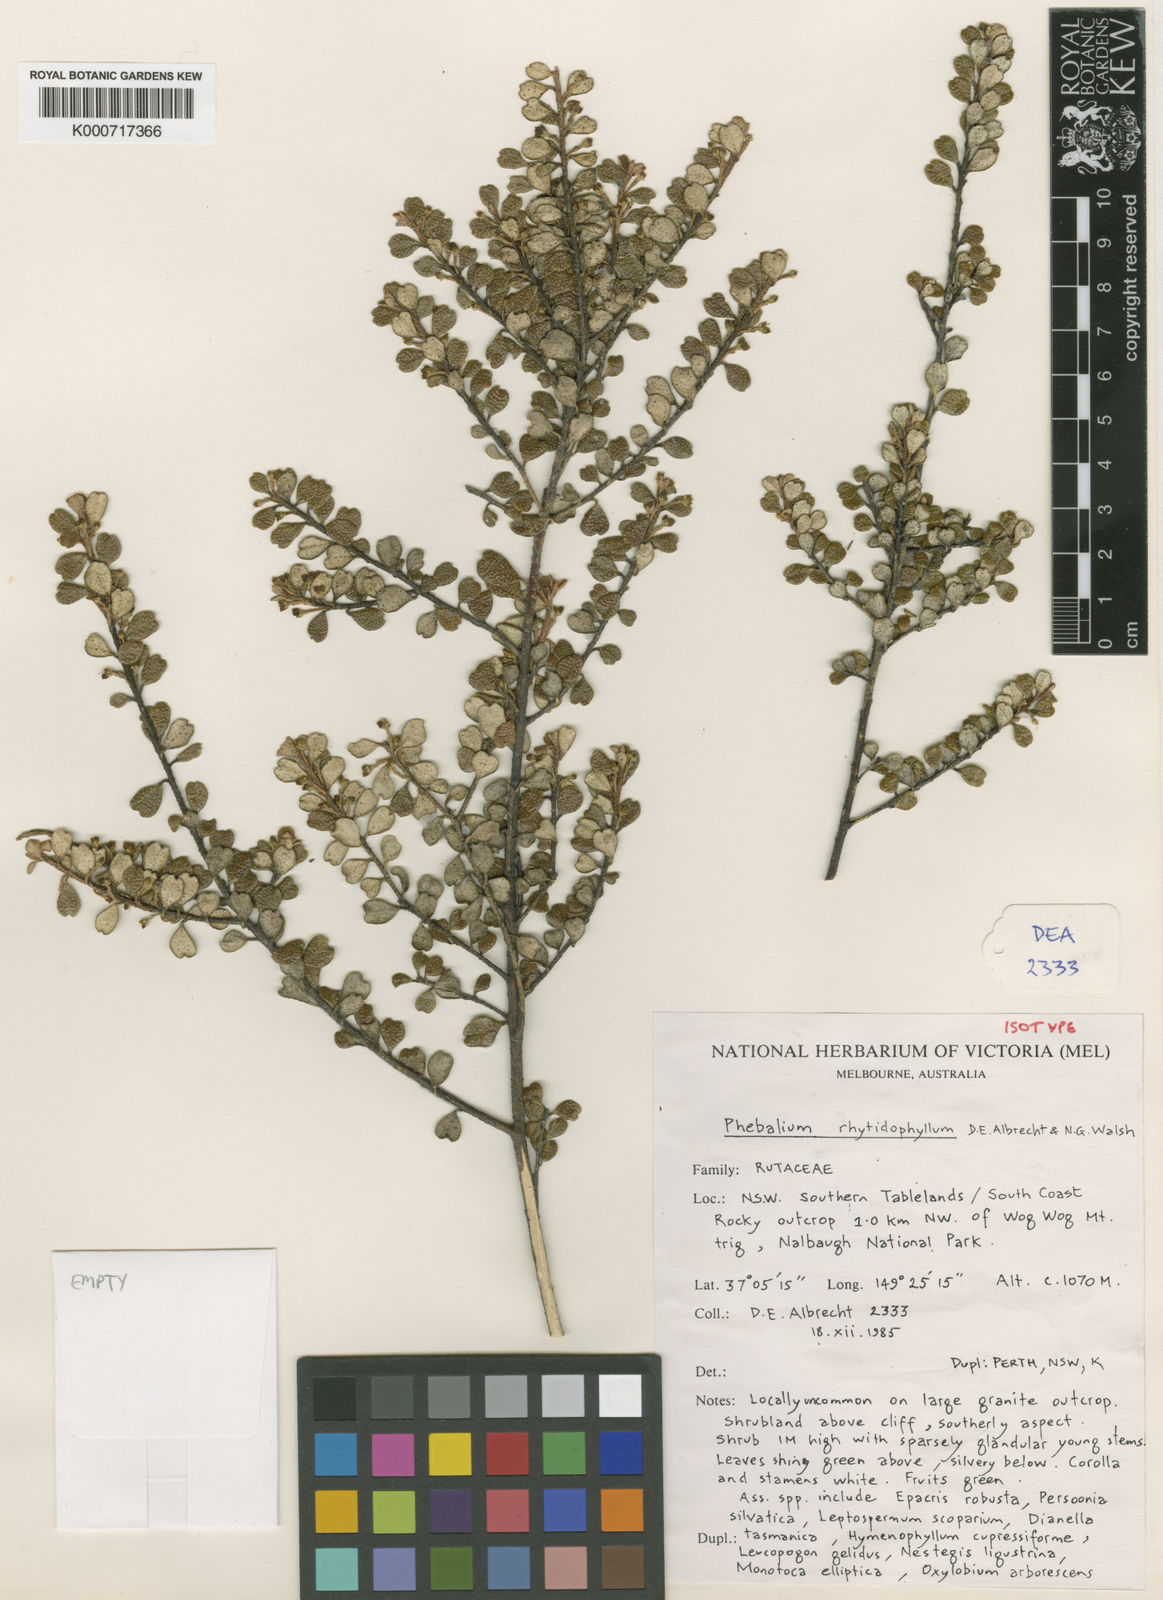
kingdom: Plantae
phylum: Tracheophyta
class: Magnoliopsida
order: Sapindales
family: Rutaceae
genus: Nematolepis
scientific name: Nematolepis rhytidophylla
